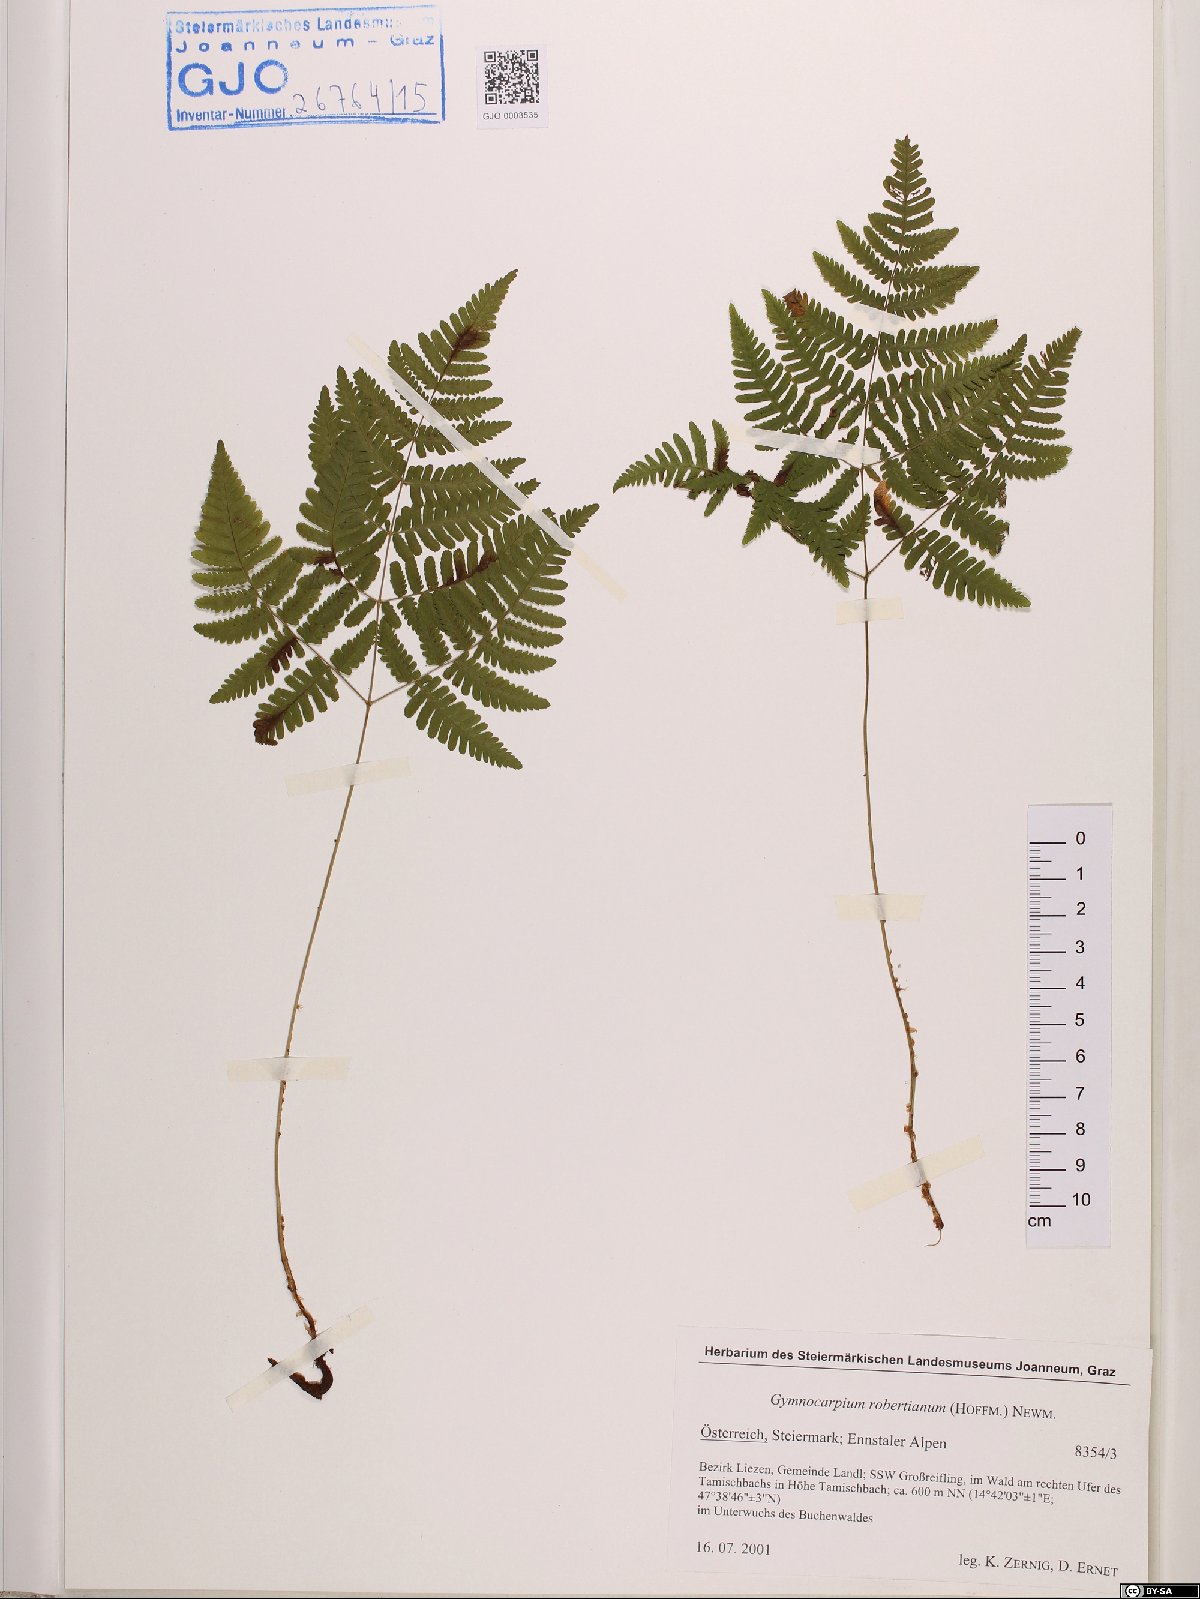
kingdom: Plantae
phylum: Tracheophyta
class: Polypodiopsida
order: Polypodiales
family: Cystopteridaceae
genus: Gymnocarpium
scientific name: Gymnocarpium robertianum
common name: Limestone fern
